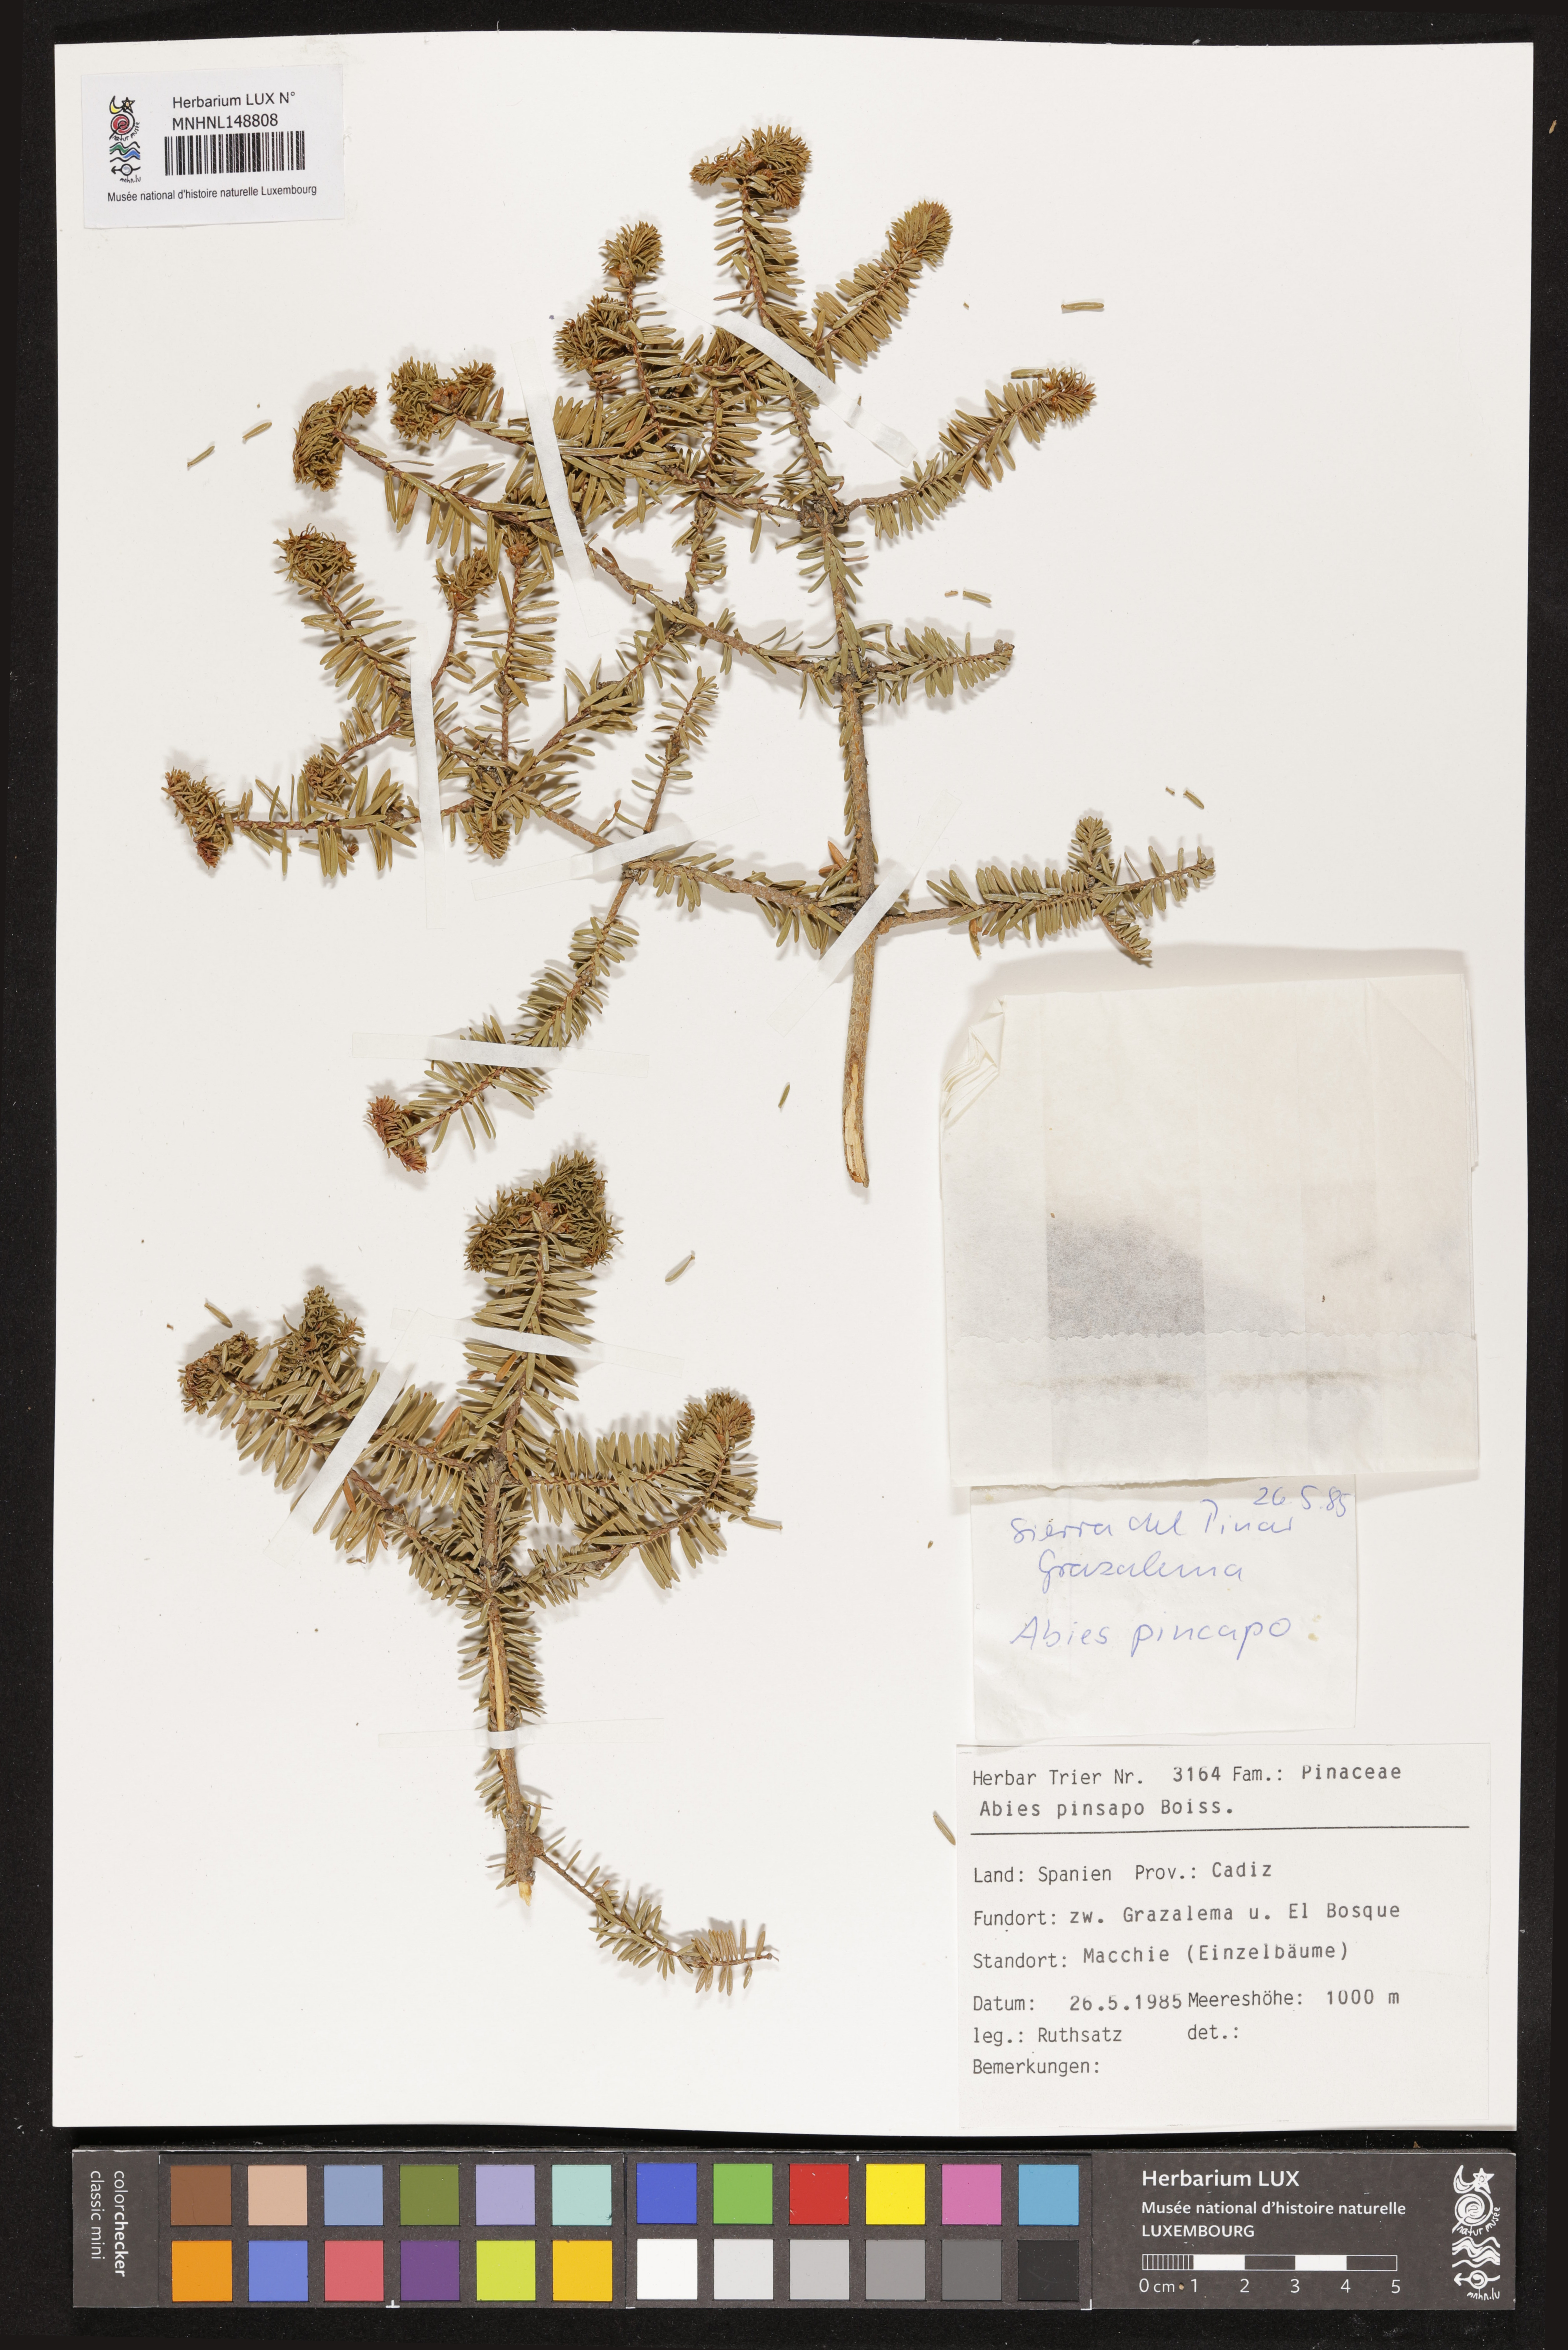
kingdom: Plantae
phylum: Tracheophyta
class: Pinopsida
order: Pinales
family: Pinaceae
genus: Abies
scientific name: Abies pinsapo
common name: Spanish fir
